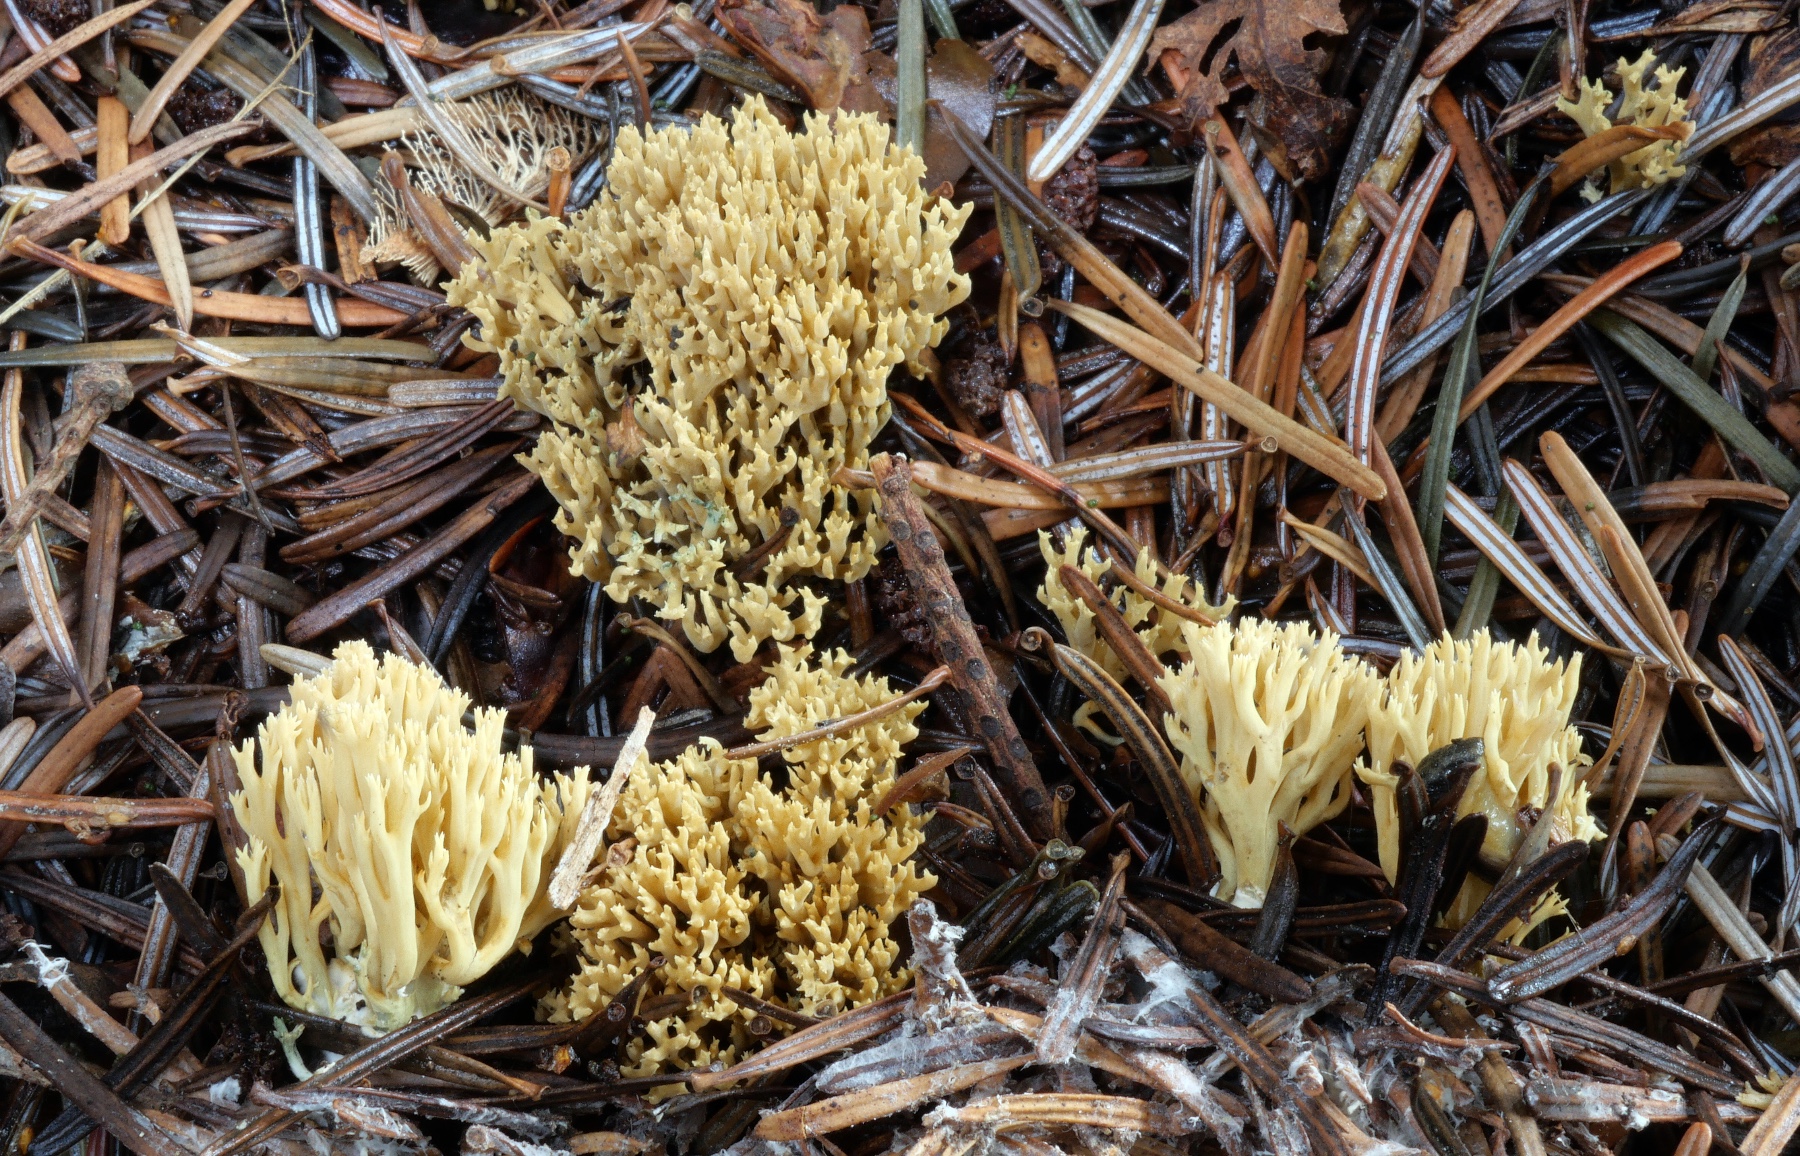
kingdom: Fungi
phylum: Basidiomycota
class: Agaricomycetes
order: Gomphales
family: Gomphaceae
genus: Phaeoclavulina
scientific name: Phaeoclavulina abietina
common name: gulgrøn koralsvamp
